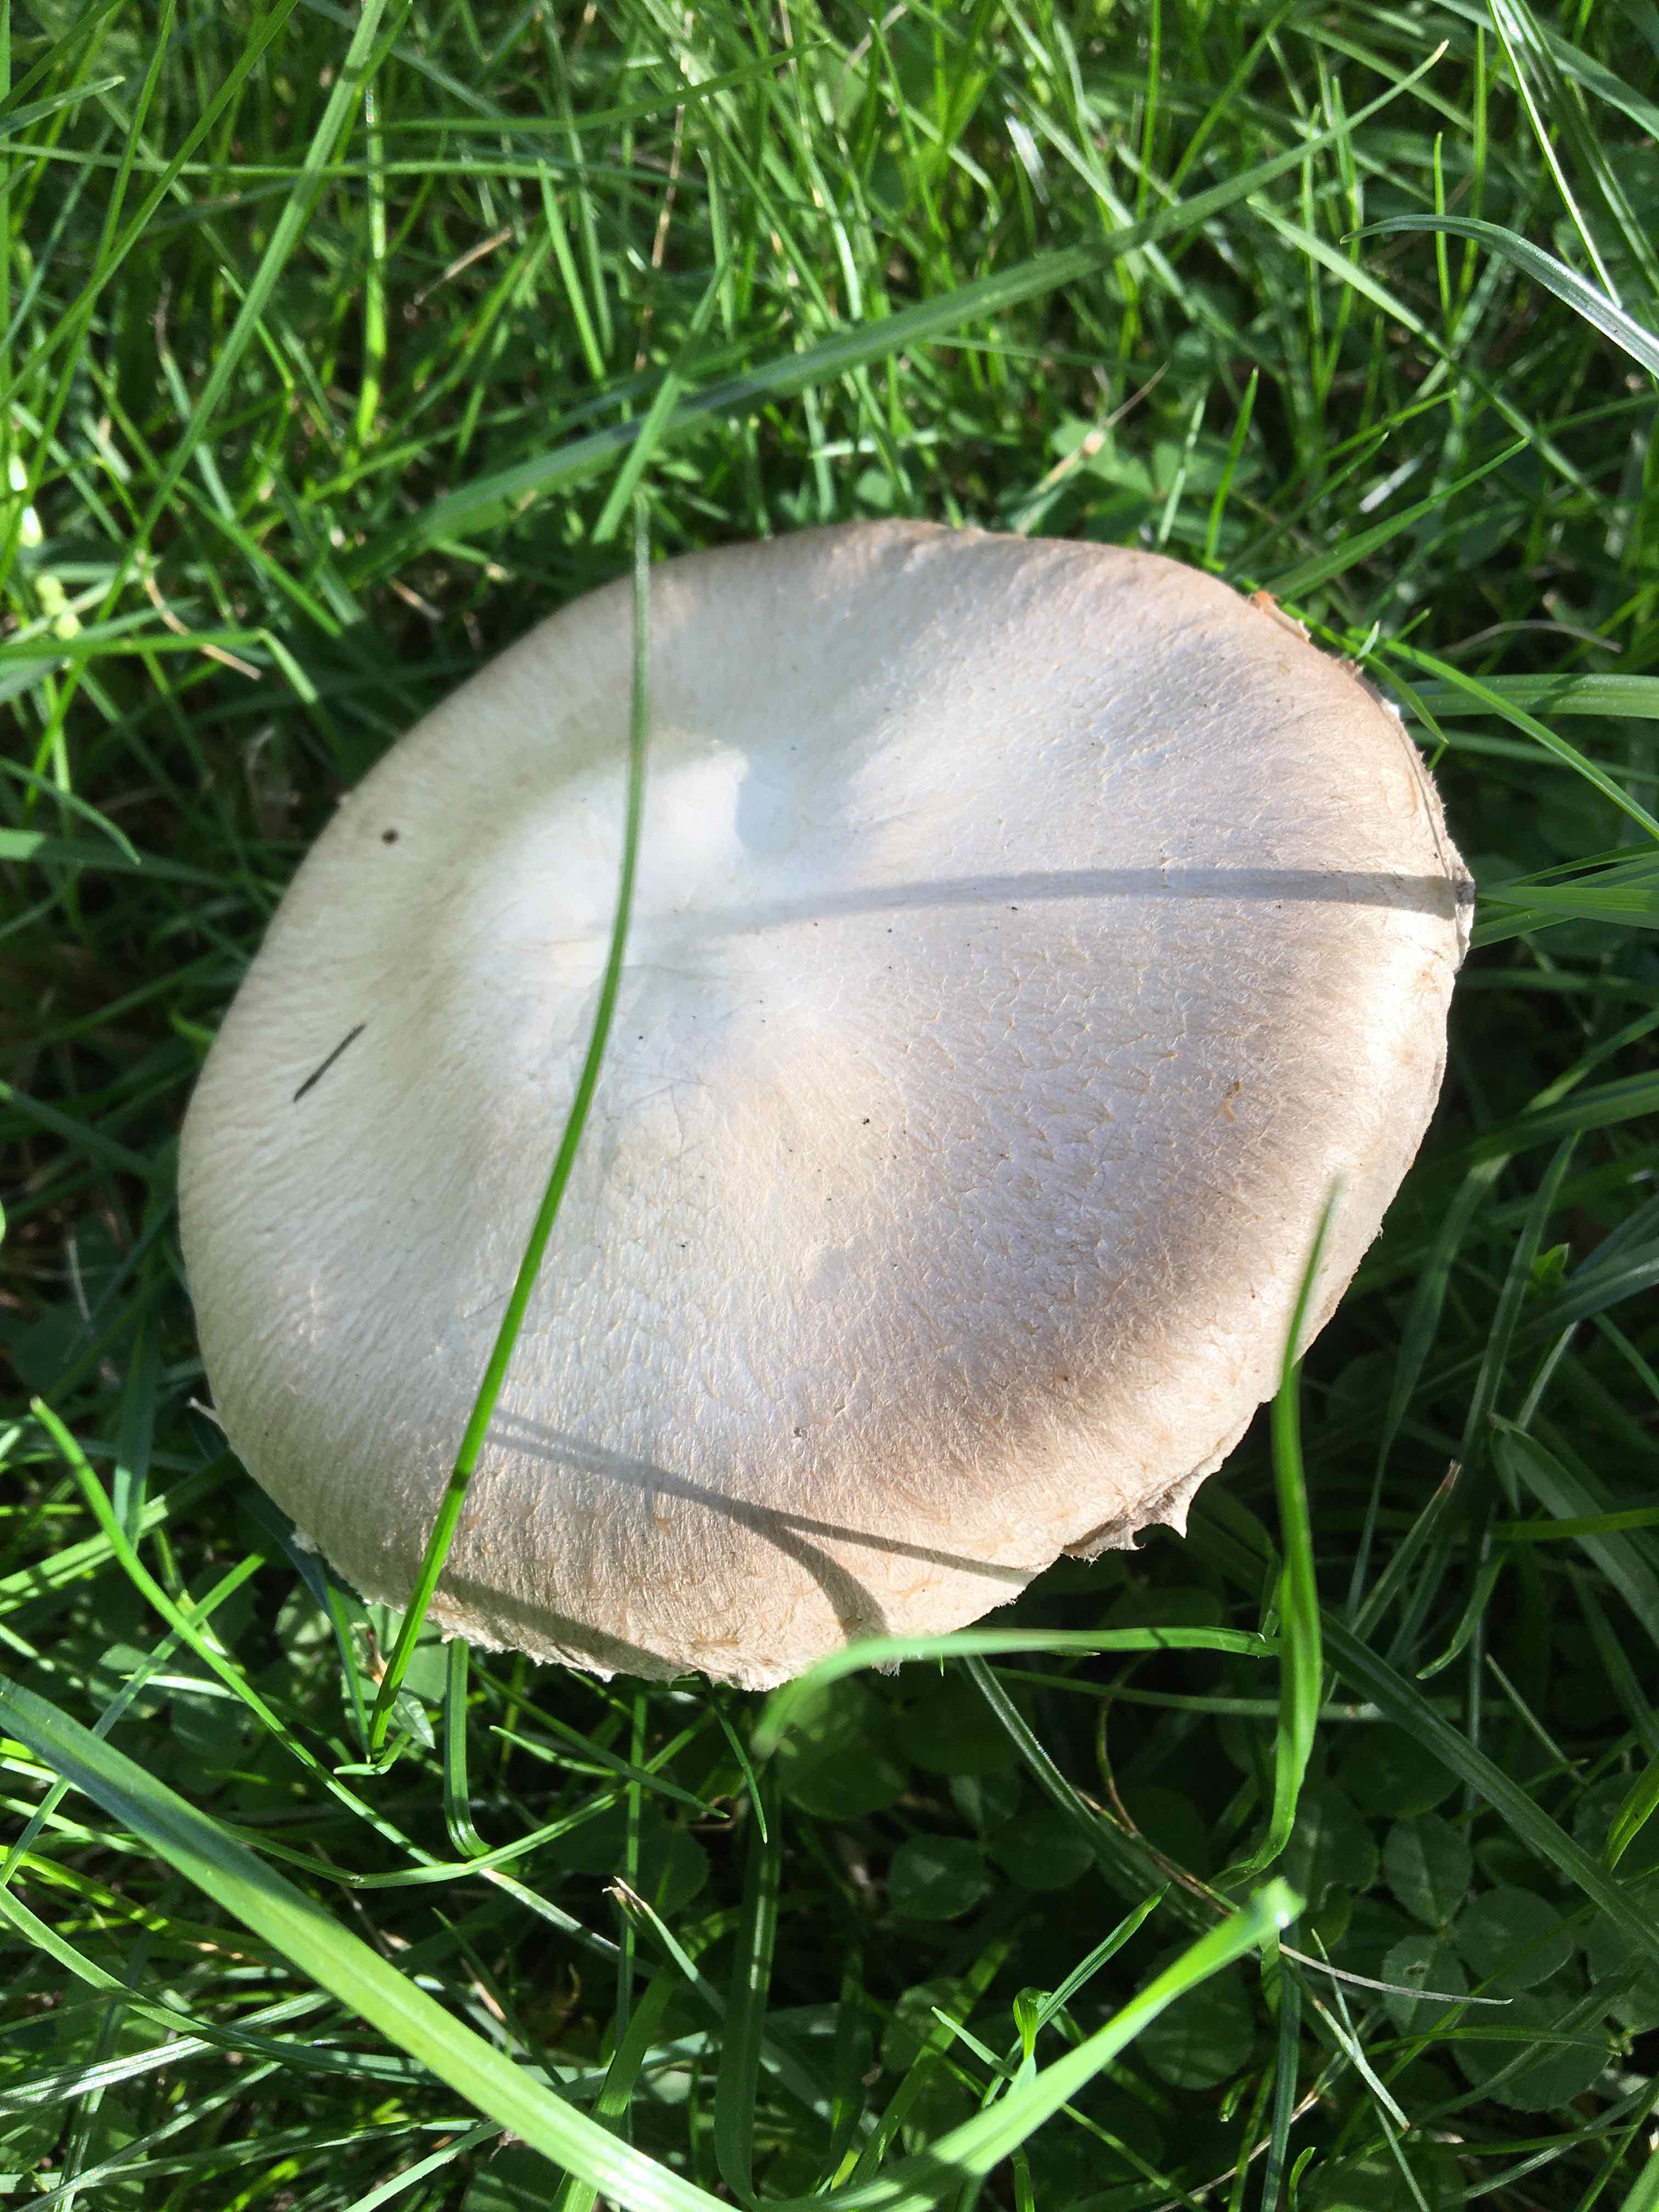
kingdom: Fungi
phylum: Basidiomycota
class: Agaricomycetes
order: Agaricales
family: Agaricaceae
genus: Agaricus
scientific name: Agaricus campestris
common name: mark-champignon
